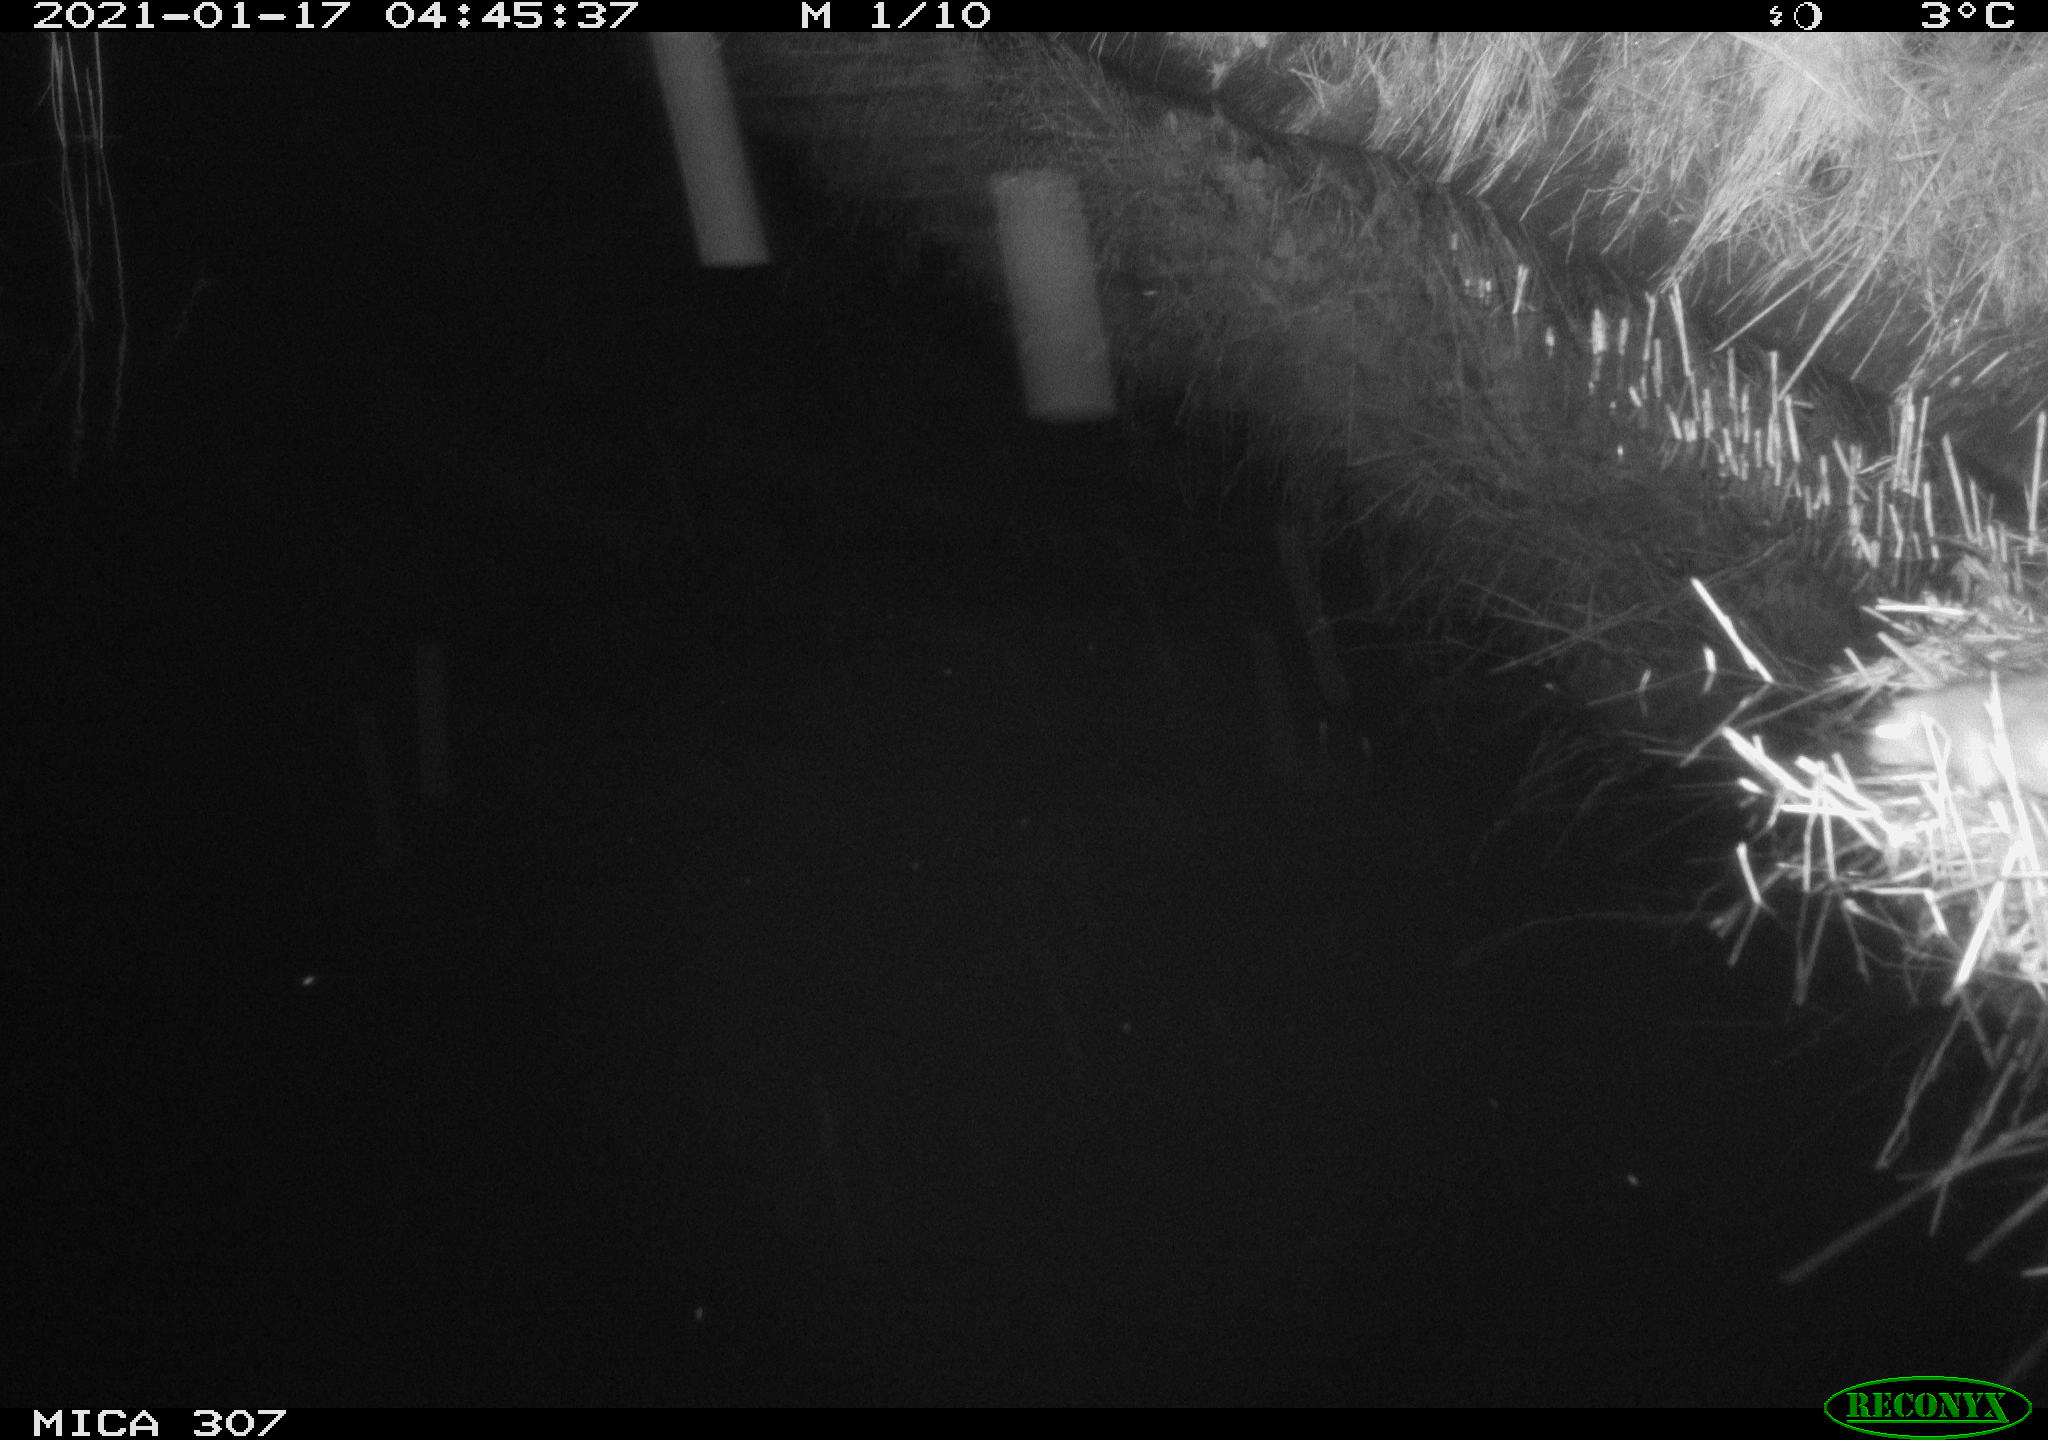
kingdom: Animalia
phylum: Chordata
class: Mammalia
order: Rodentia
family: Muridae
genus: Rattus
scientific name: Rattus norvegicus
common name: Brown rat
